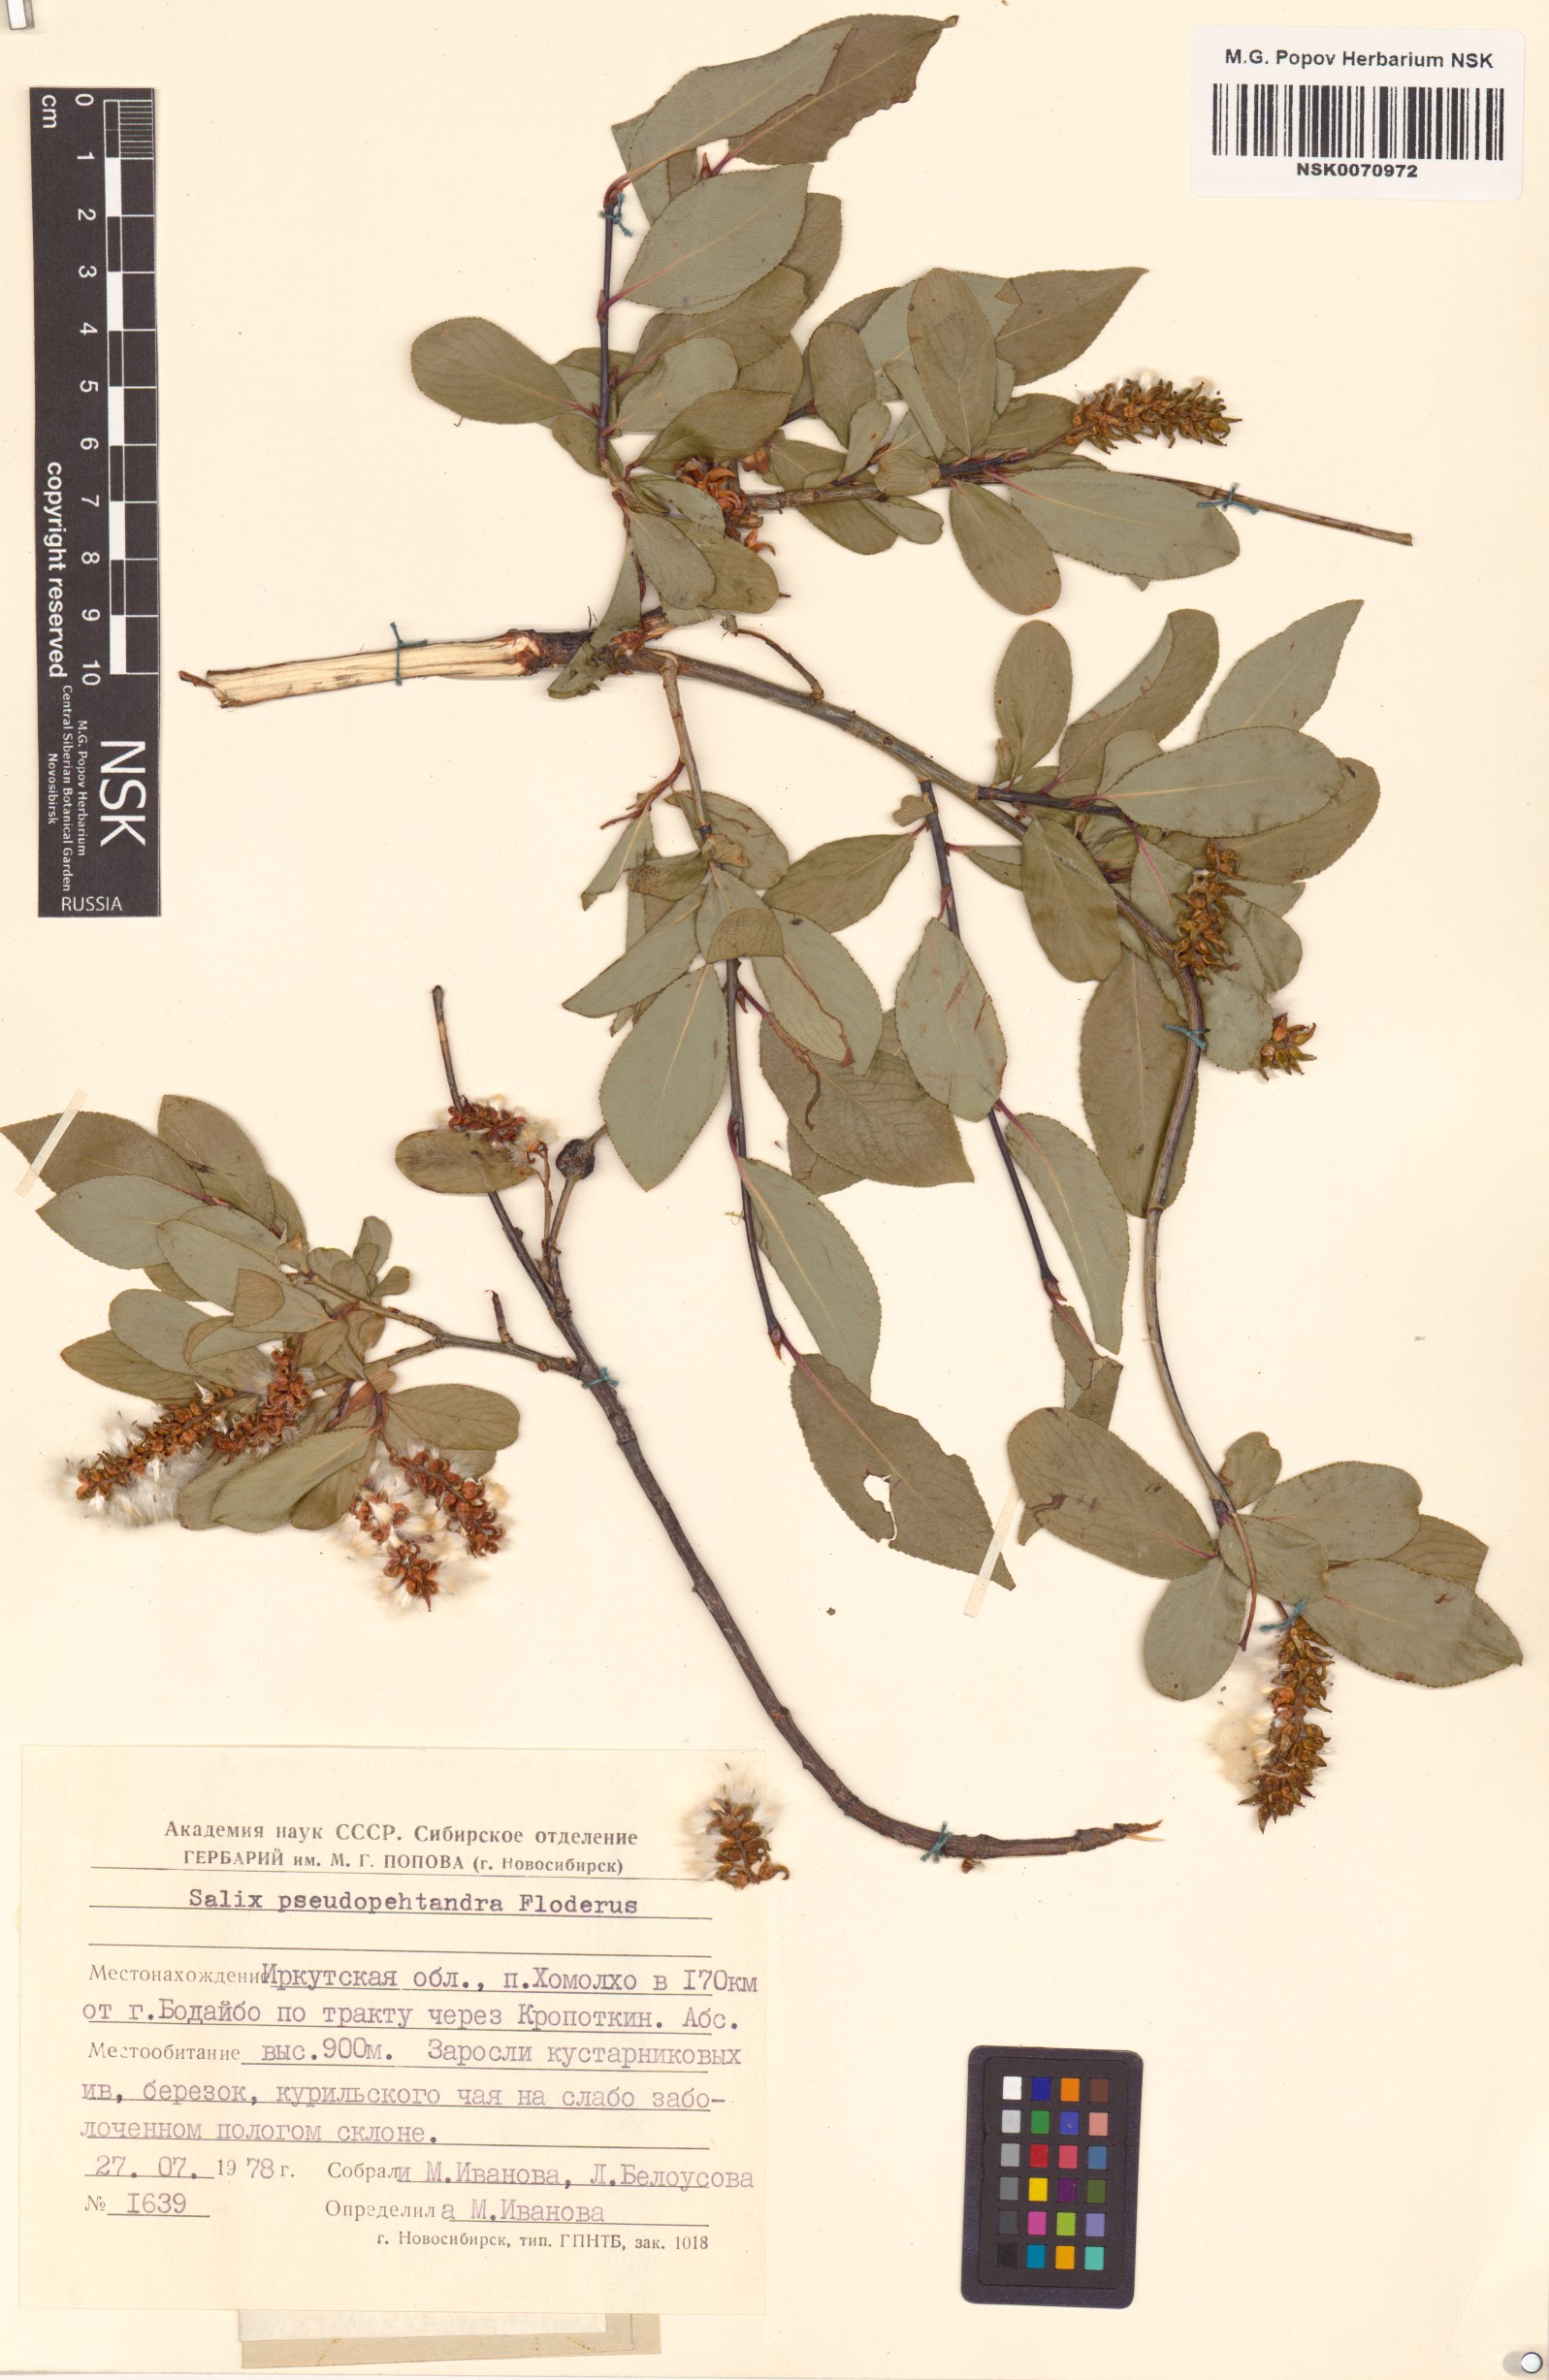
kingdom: Plantae
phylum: Tracheophyta
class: Magnoliopsida
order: Malpighiales
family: Salicaceae
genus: Salix
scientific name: Salix pseudopentandra
